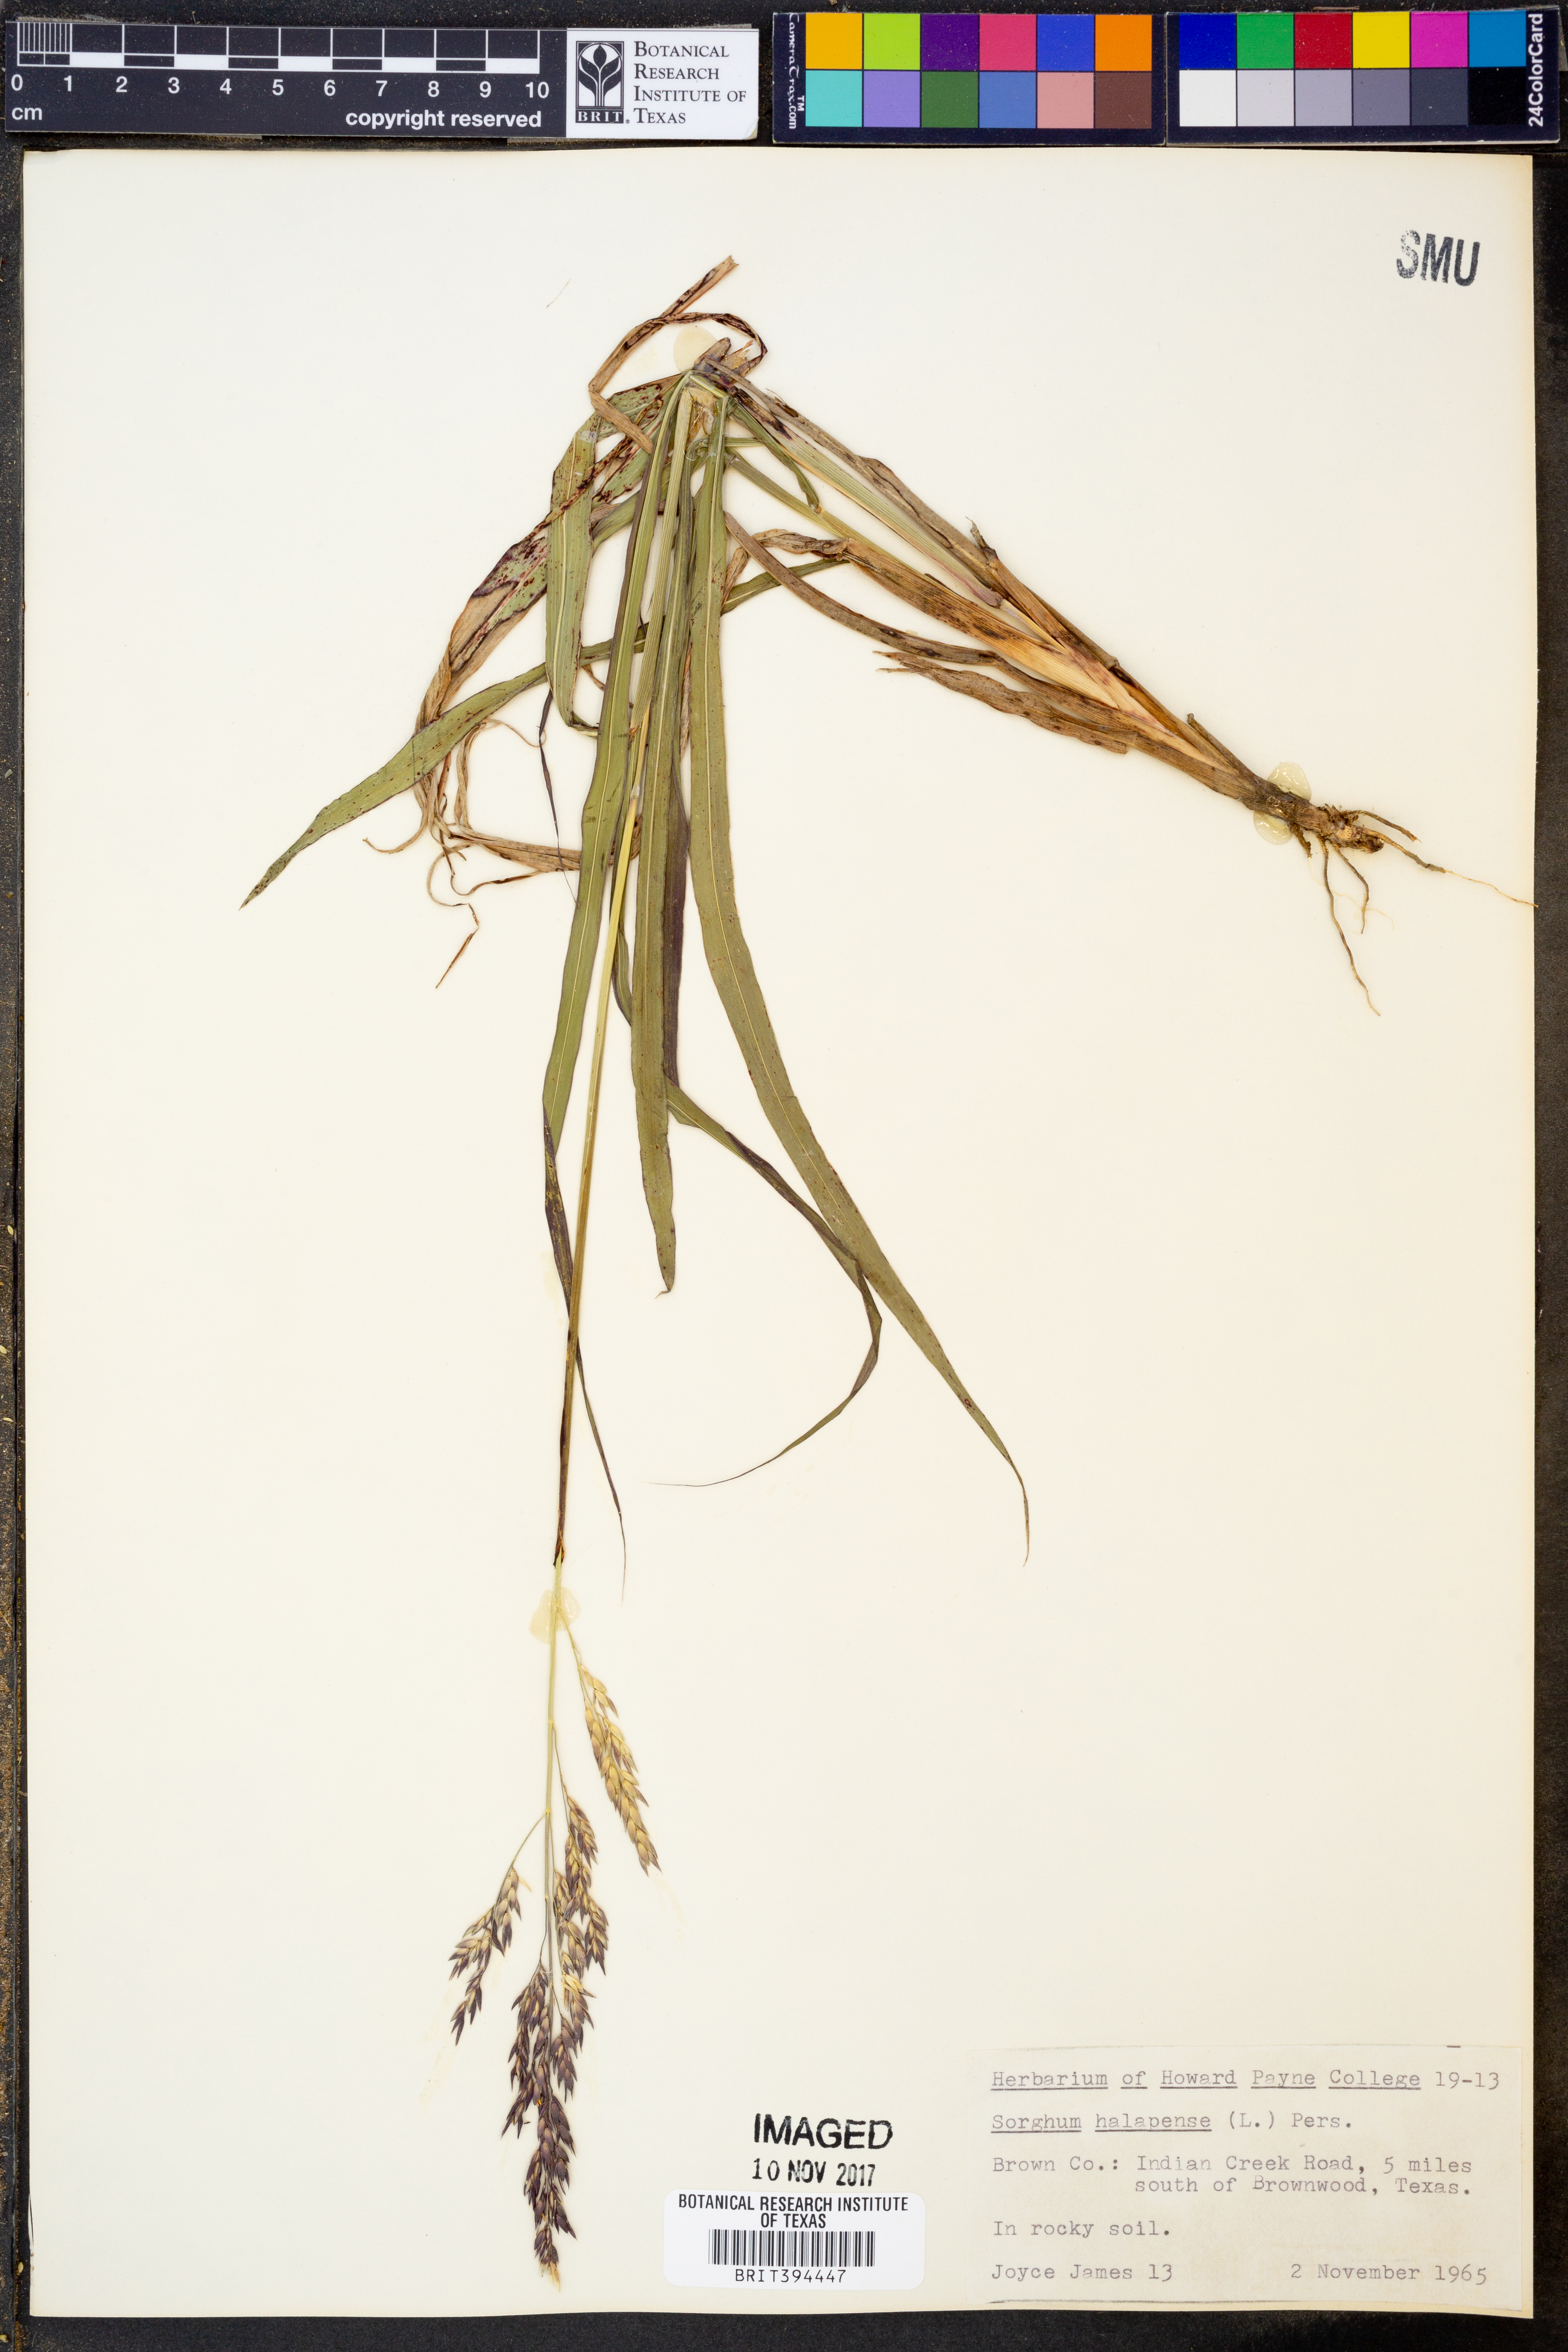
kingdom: Plantae
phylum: Tracheophyta
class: Liliopsida
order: Poales
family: Poaceae
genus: Sorghum
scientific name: Sorghum halepense
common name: Johnson-grass
